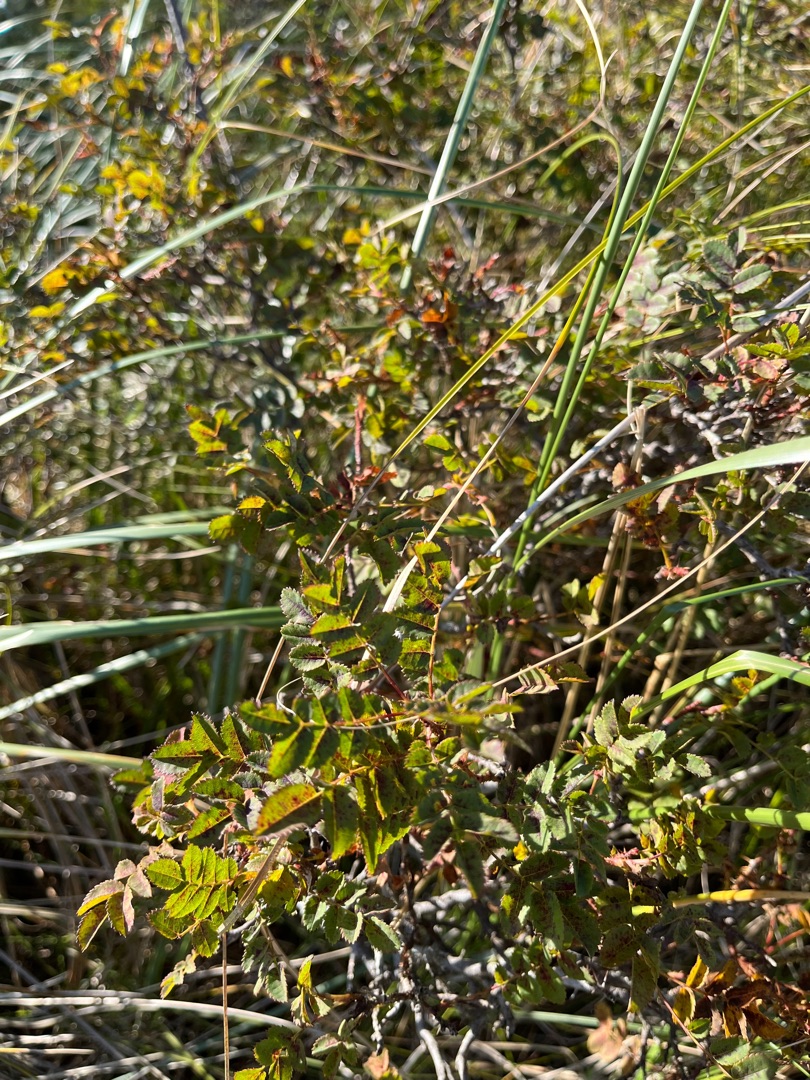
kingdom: Plantae
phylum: Tracheophyta
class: Magnoliopsida
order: Rosales
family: Rosaceae
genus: Rosa
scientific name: Rosa spinosissima
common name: Klit-rose
